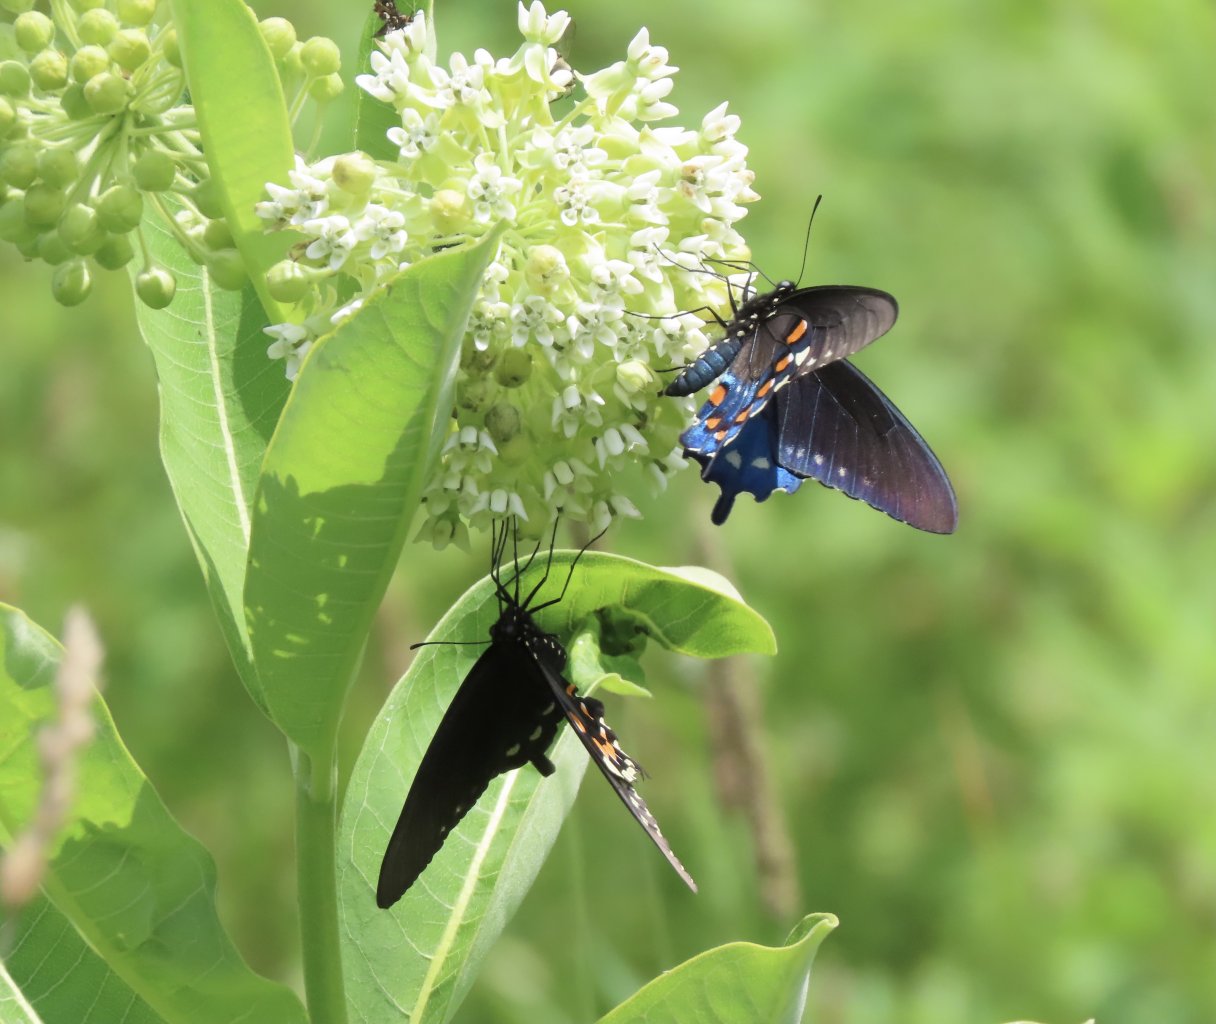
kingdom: Animalia
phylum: Arthropoda
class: Insecta
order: Lepidoptera
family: Papilionidae
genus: Battus
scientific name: Battus philenor
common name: Pipevine Swallowtail
